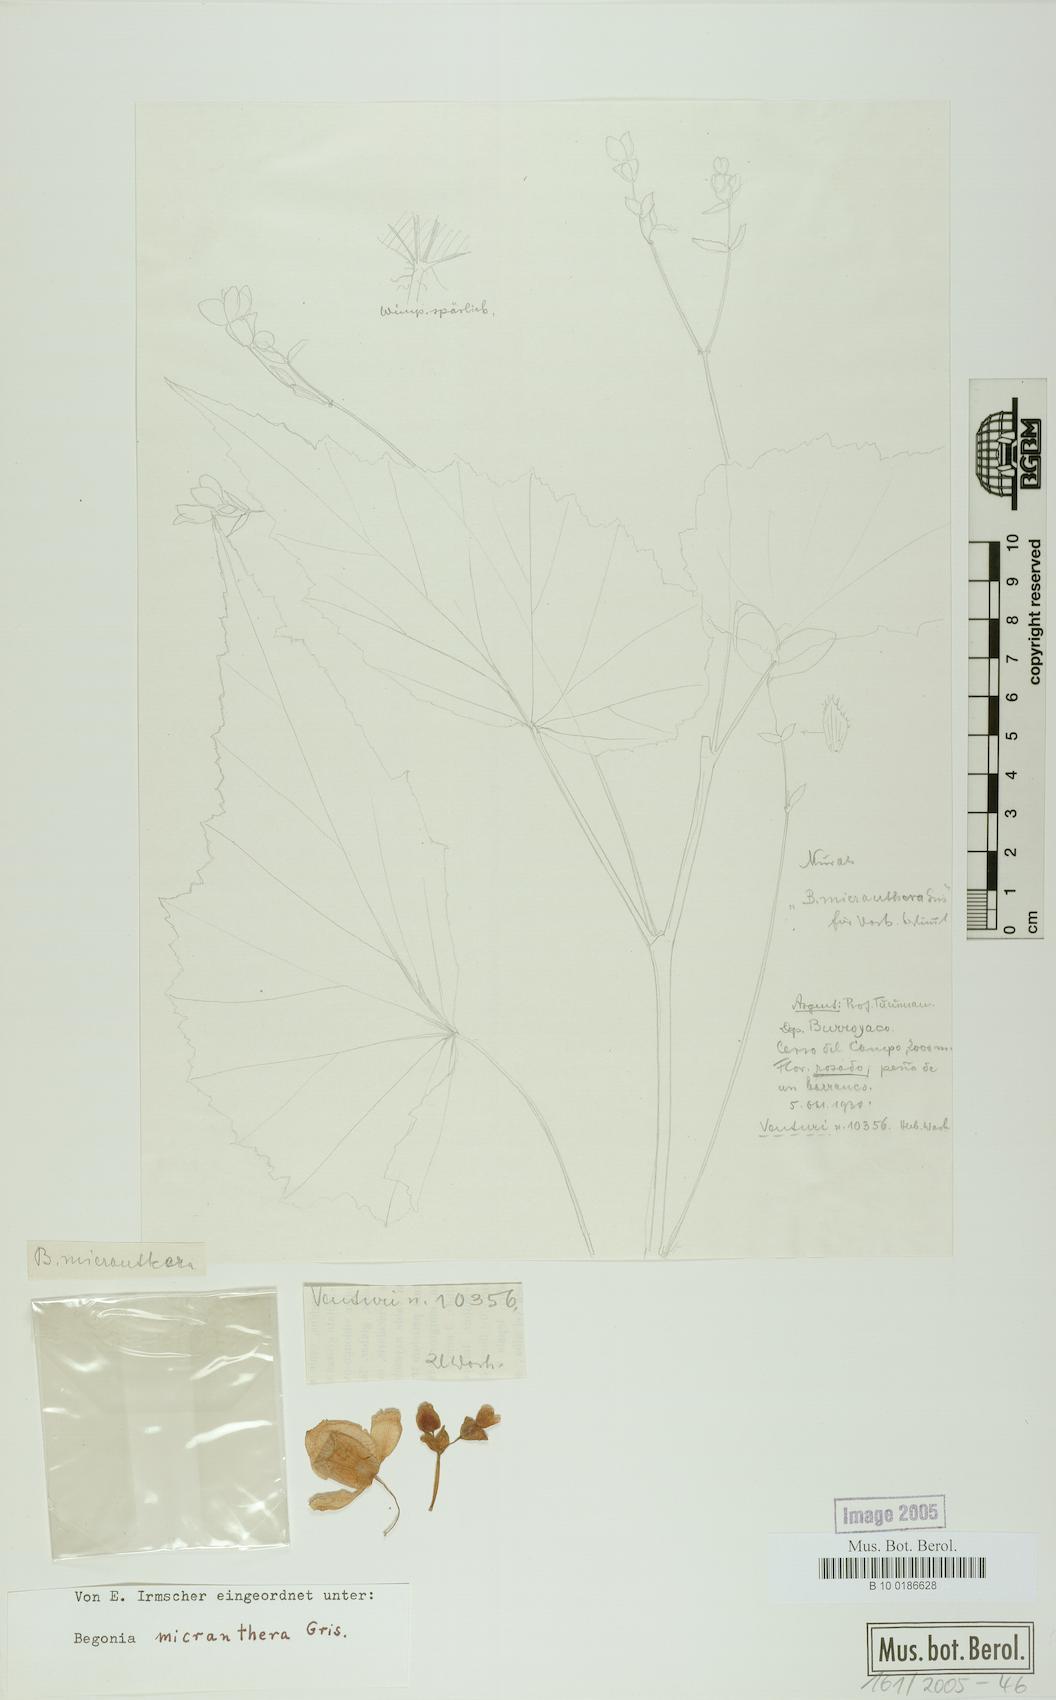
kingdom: Plantae
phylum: Tracheophyta
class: Magnoliopsida
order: Cucurbitales
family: Begoniaceae
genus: Begonia
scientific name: Begonia micranthera
